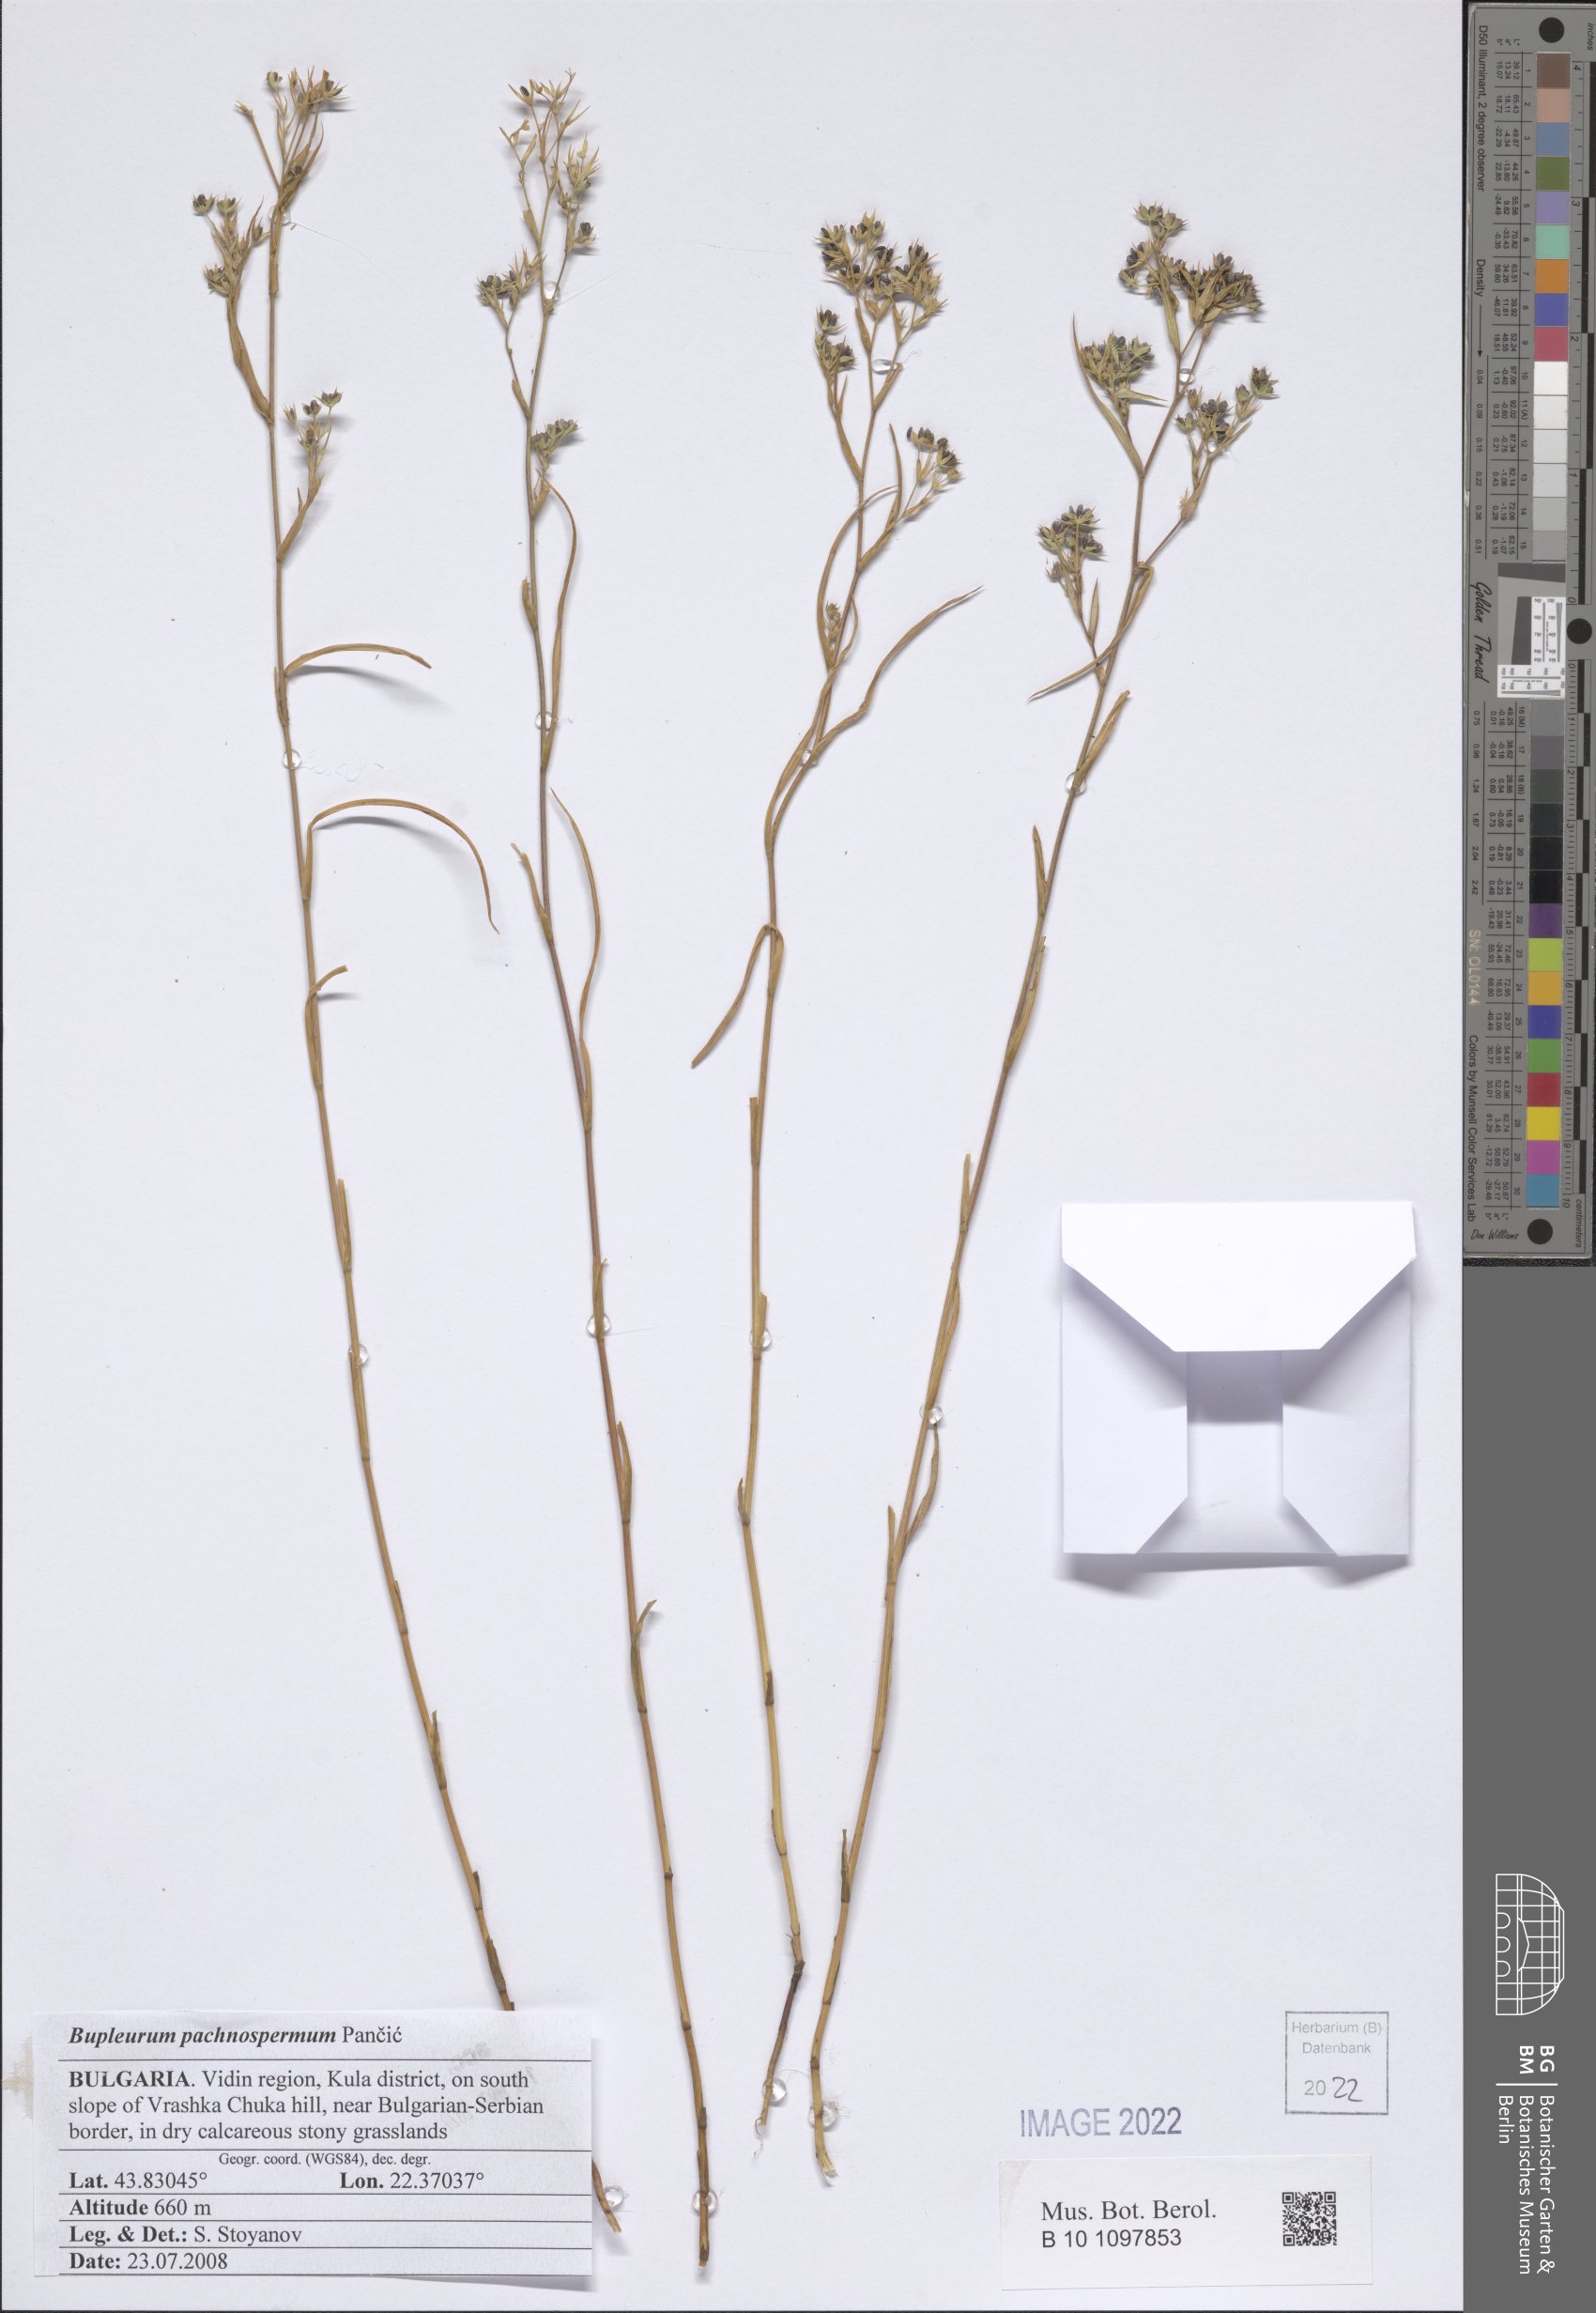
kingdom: Plantae
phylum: Tracheophyta
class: Magnoliopsida
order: Apiales
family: Apiaceae
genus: Bupleurum
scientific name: Bupleurum pachnospermum
